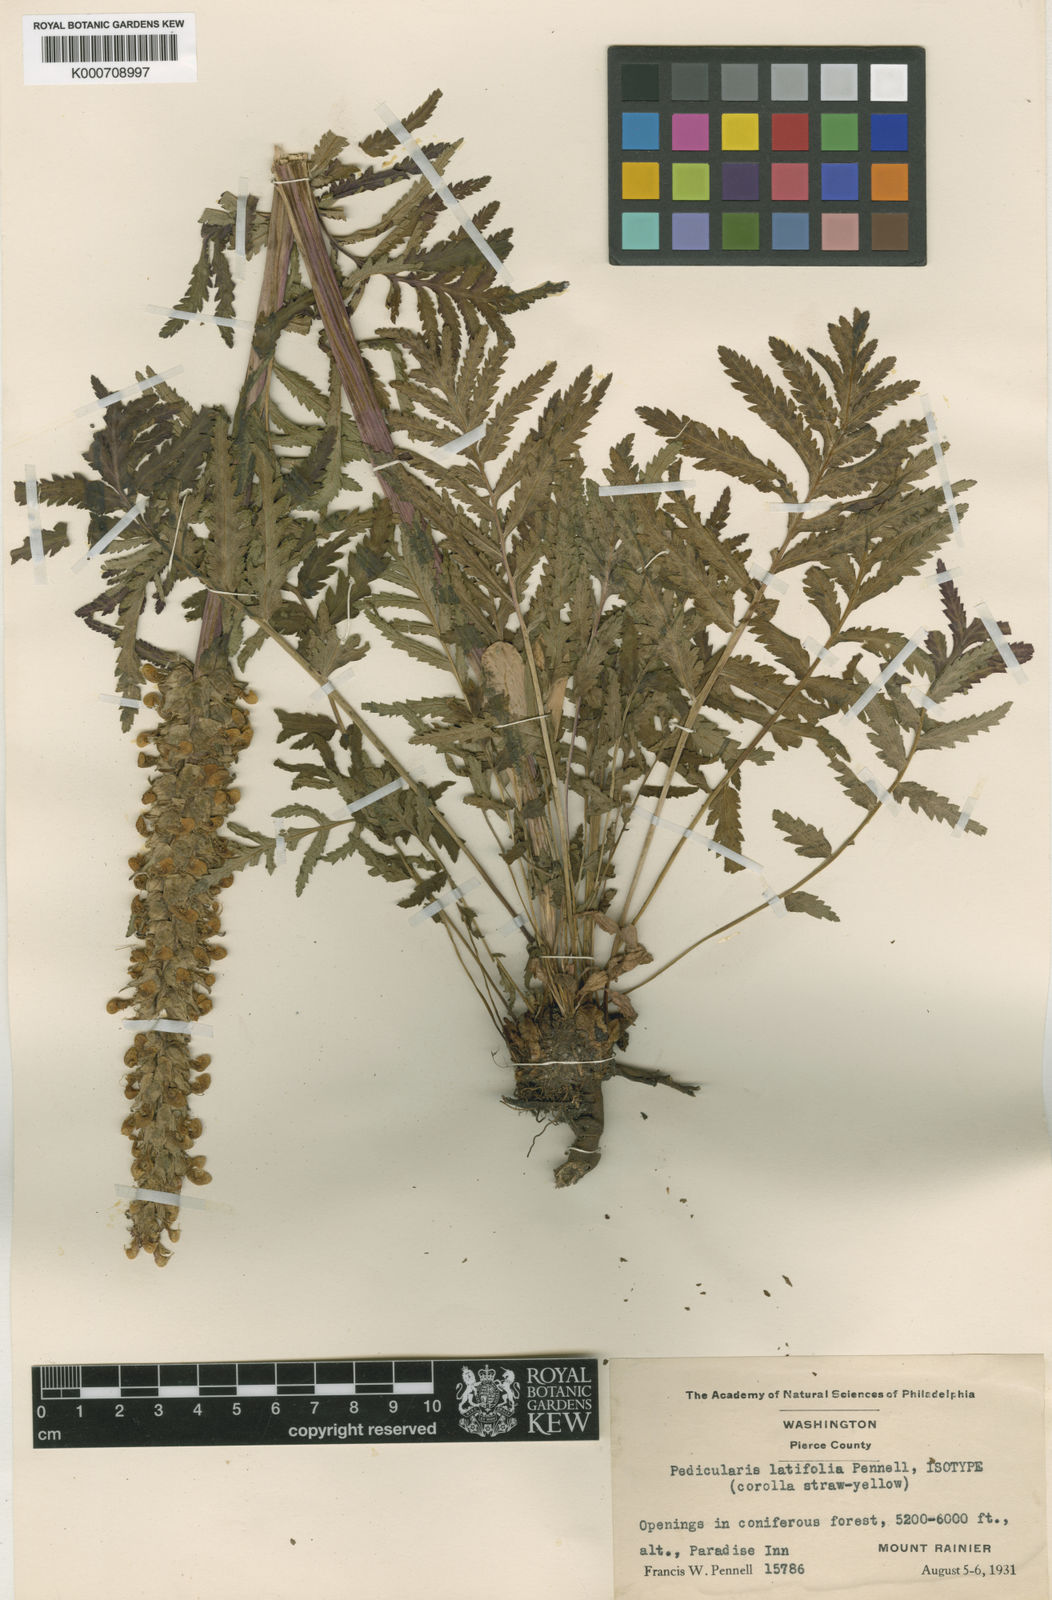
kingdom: Plantae
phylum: Tracheophyta
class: Magnoliopsida
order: Lamiales
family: Orobanchaceae
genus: Pedicularis
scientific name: Pedicularis bracteosa
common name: Bracted lousewort
